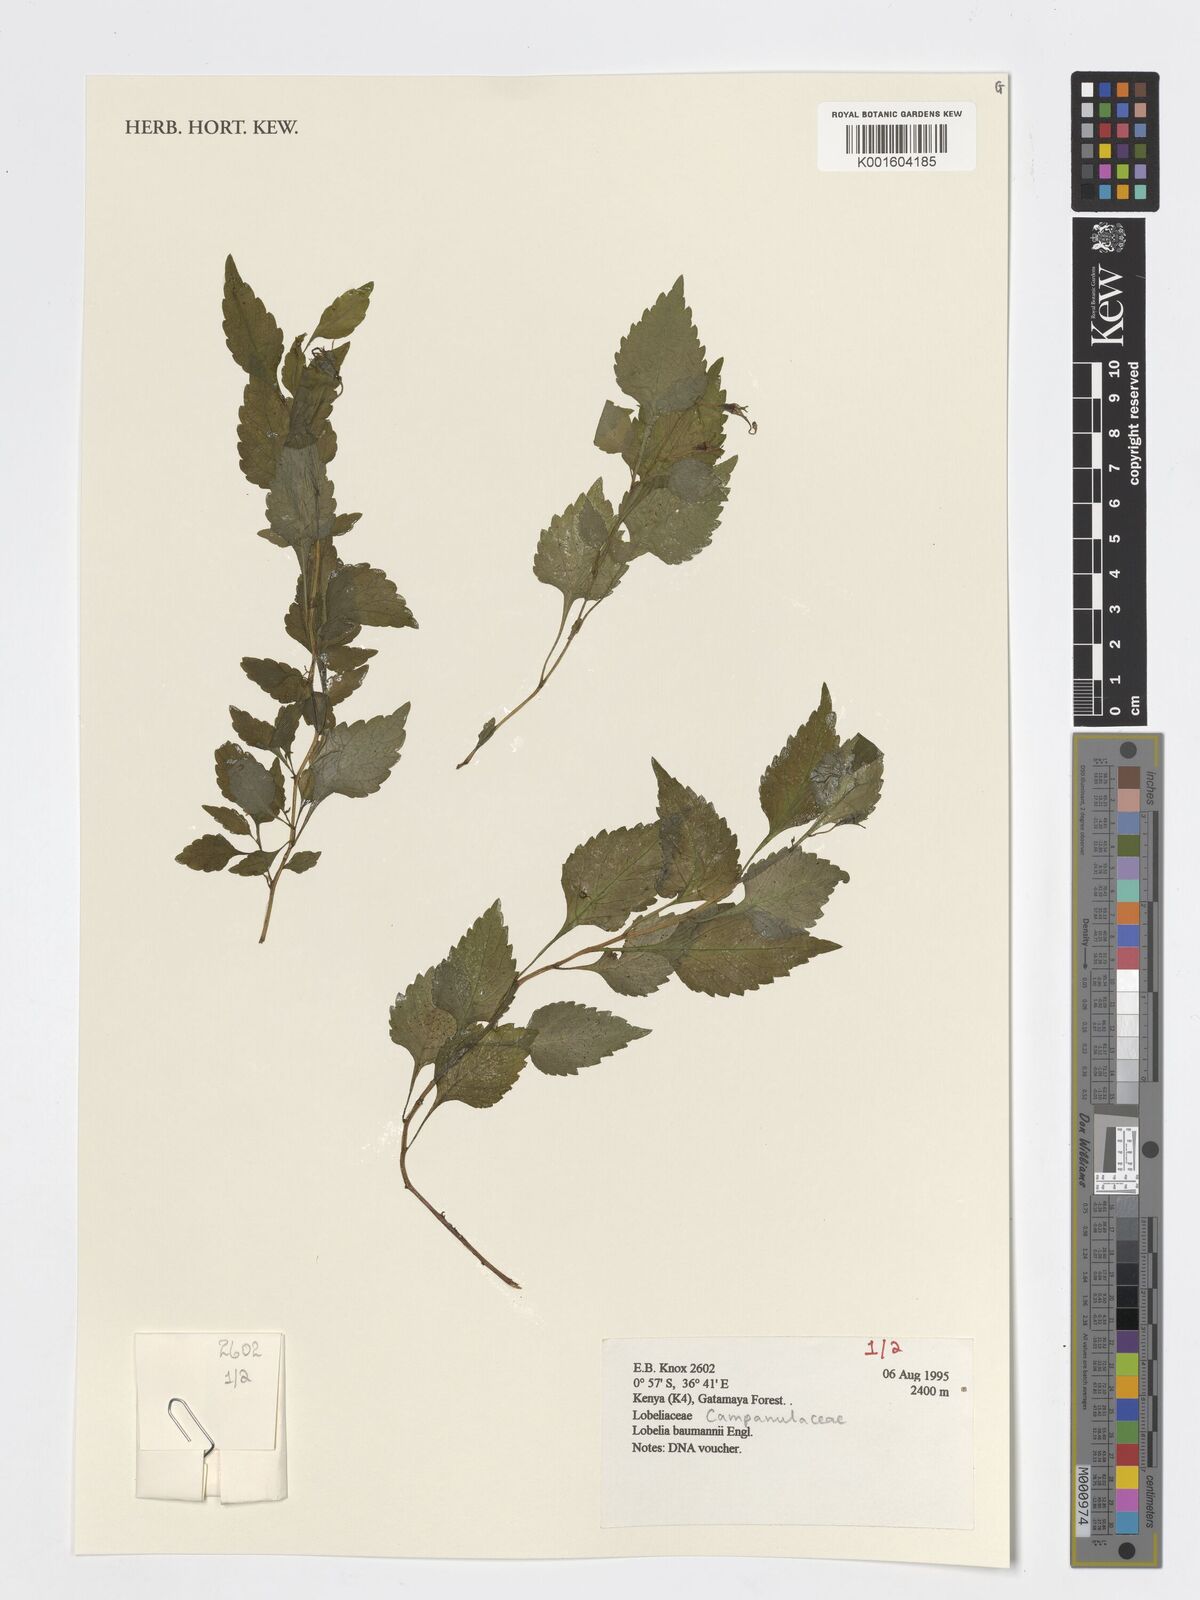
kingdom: Plantae
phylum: Tracheophyta
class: Magnoliopsida
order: Asterales
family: Campanulaceae
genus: Lobelia
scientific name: Lobelia baumannii
